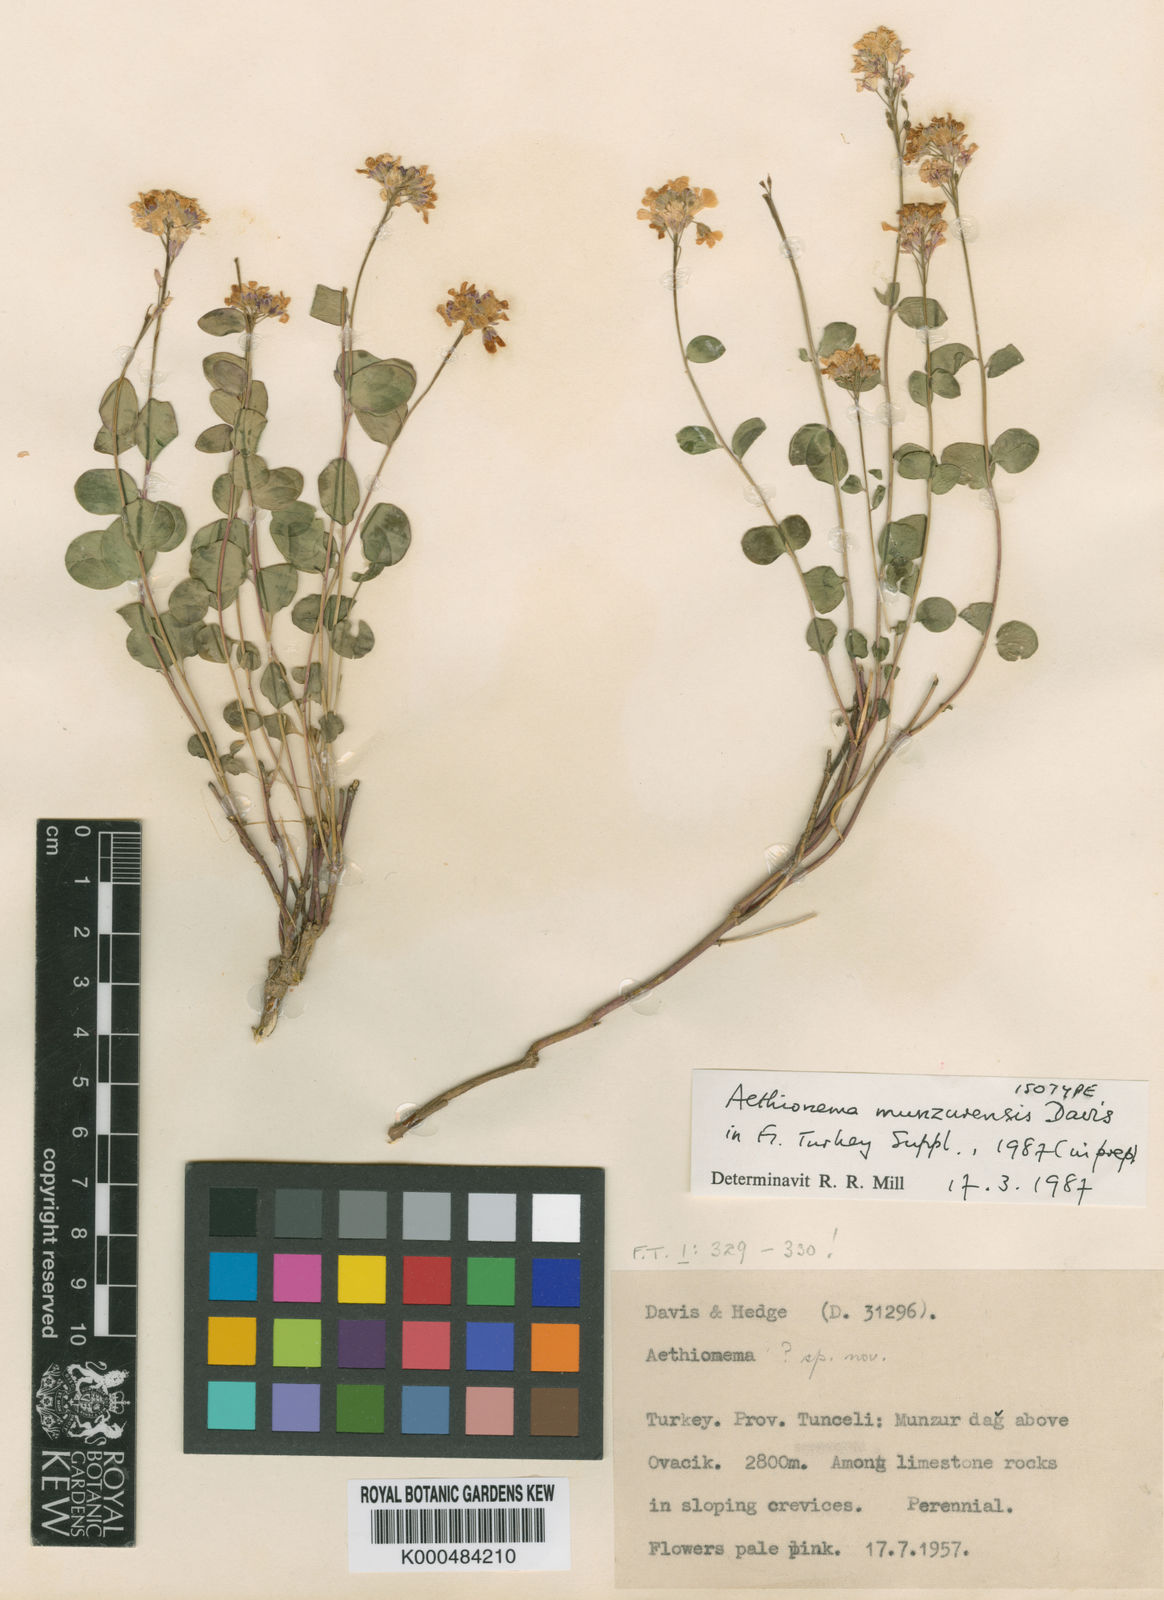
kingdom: Plantae
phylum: Tracheophyta
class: Magnoliopsida
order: Brassicales
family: Brassicaceae
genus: Aethionema
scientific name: Aethionema munzurense
